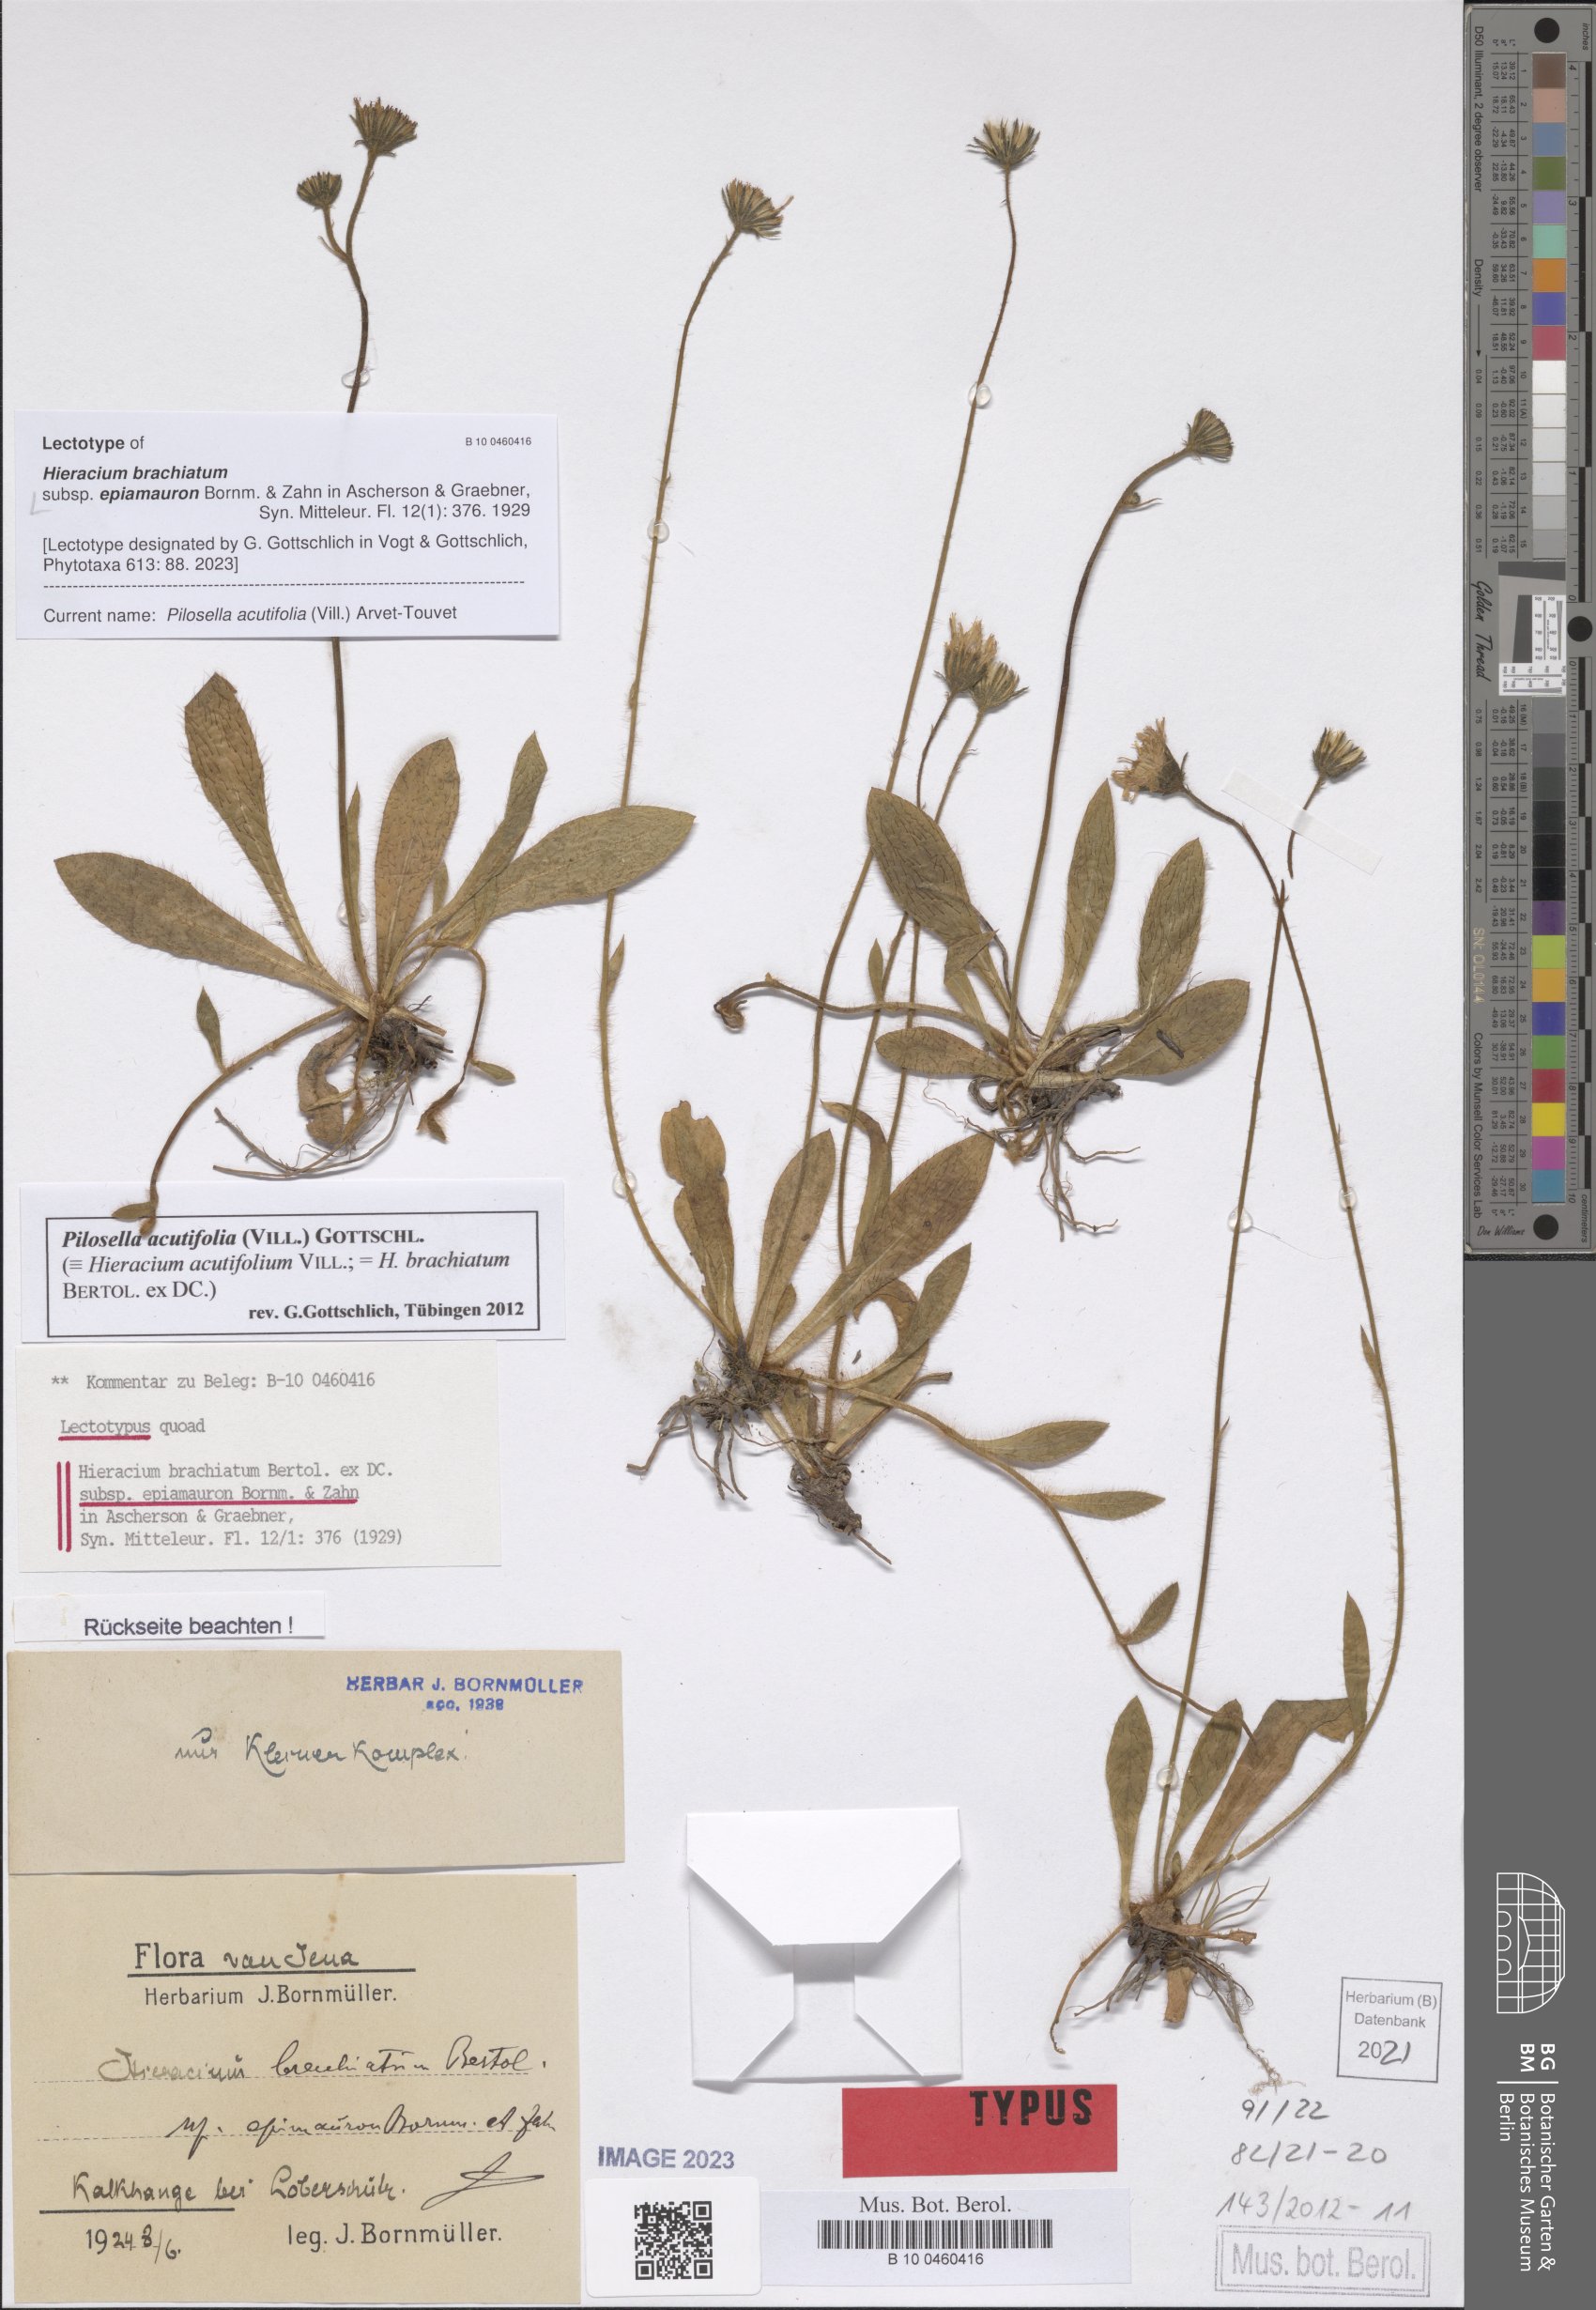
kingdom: Plantae
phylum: Tracheophyta
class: Magnoliopsida
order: Asterales
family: Asteraceae
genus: Pilosella
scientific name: Pilosella acutifolia
